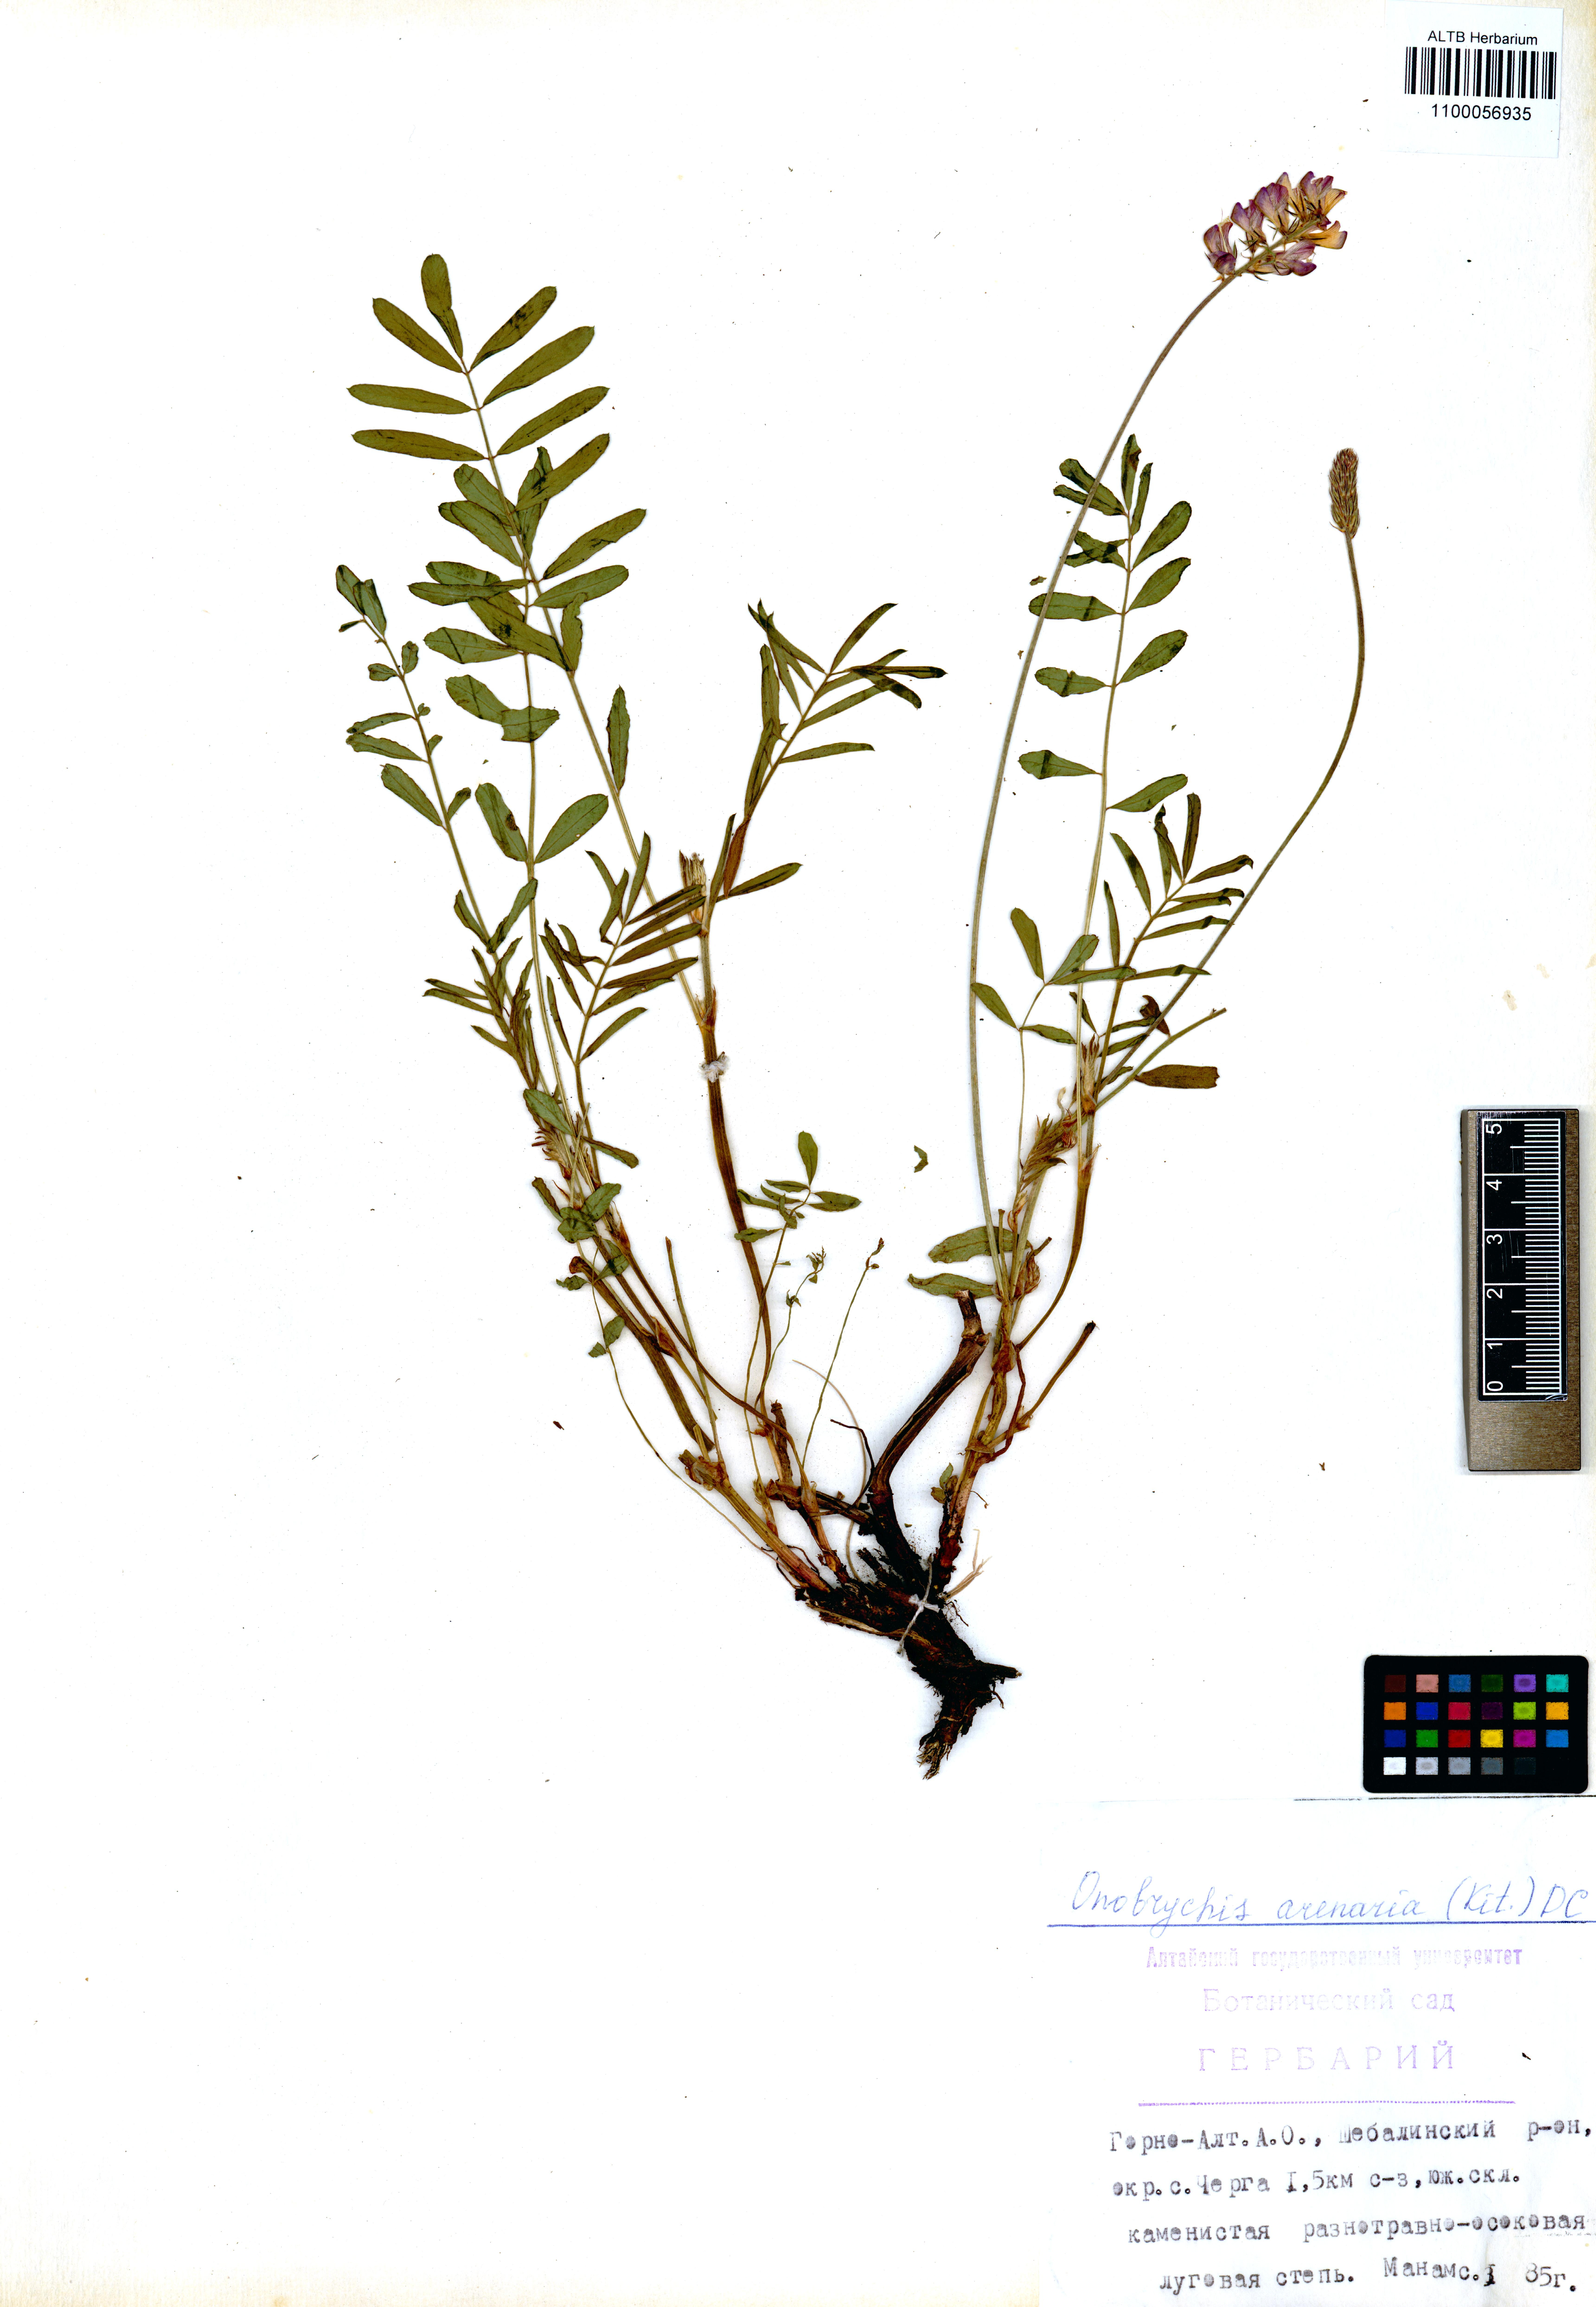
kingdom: Plantae
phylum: Tracheophyta
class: Magnoliopsida
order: Fabales
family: Fabaceae
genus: Onobrychis
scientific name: Onobrychis arenaria
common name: Sand esparcet
